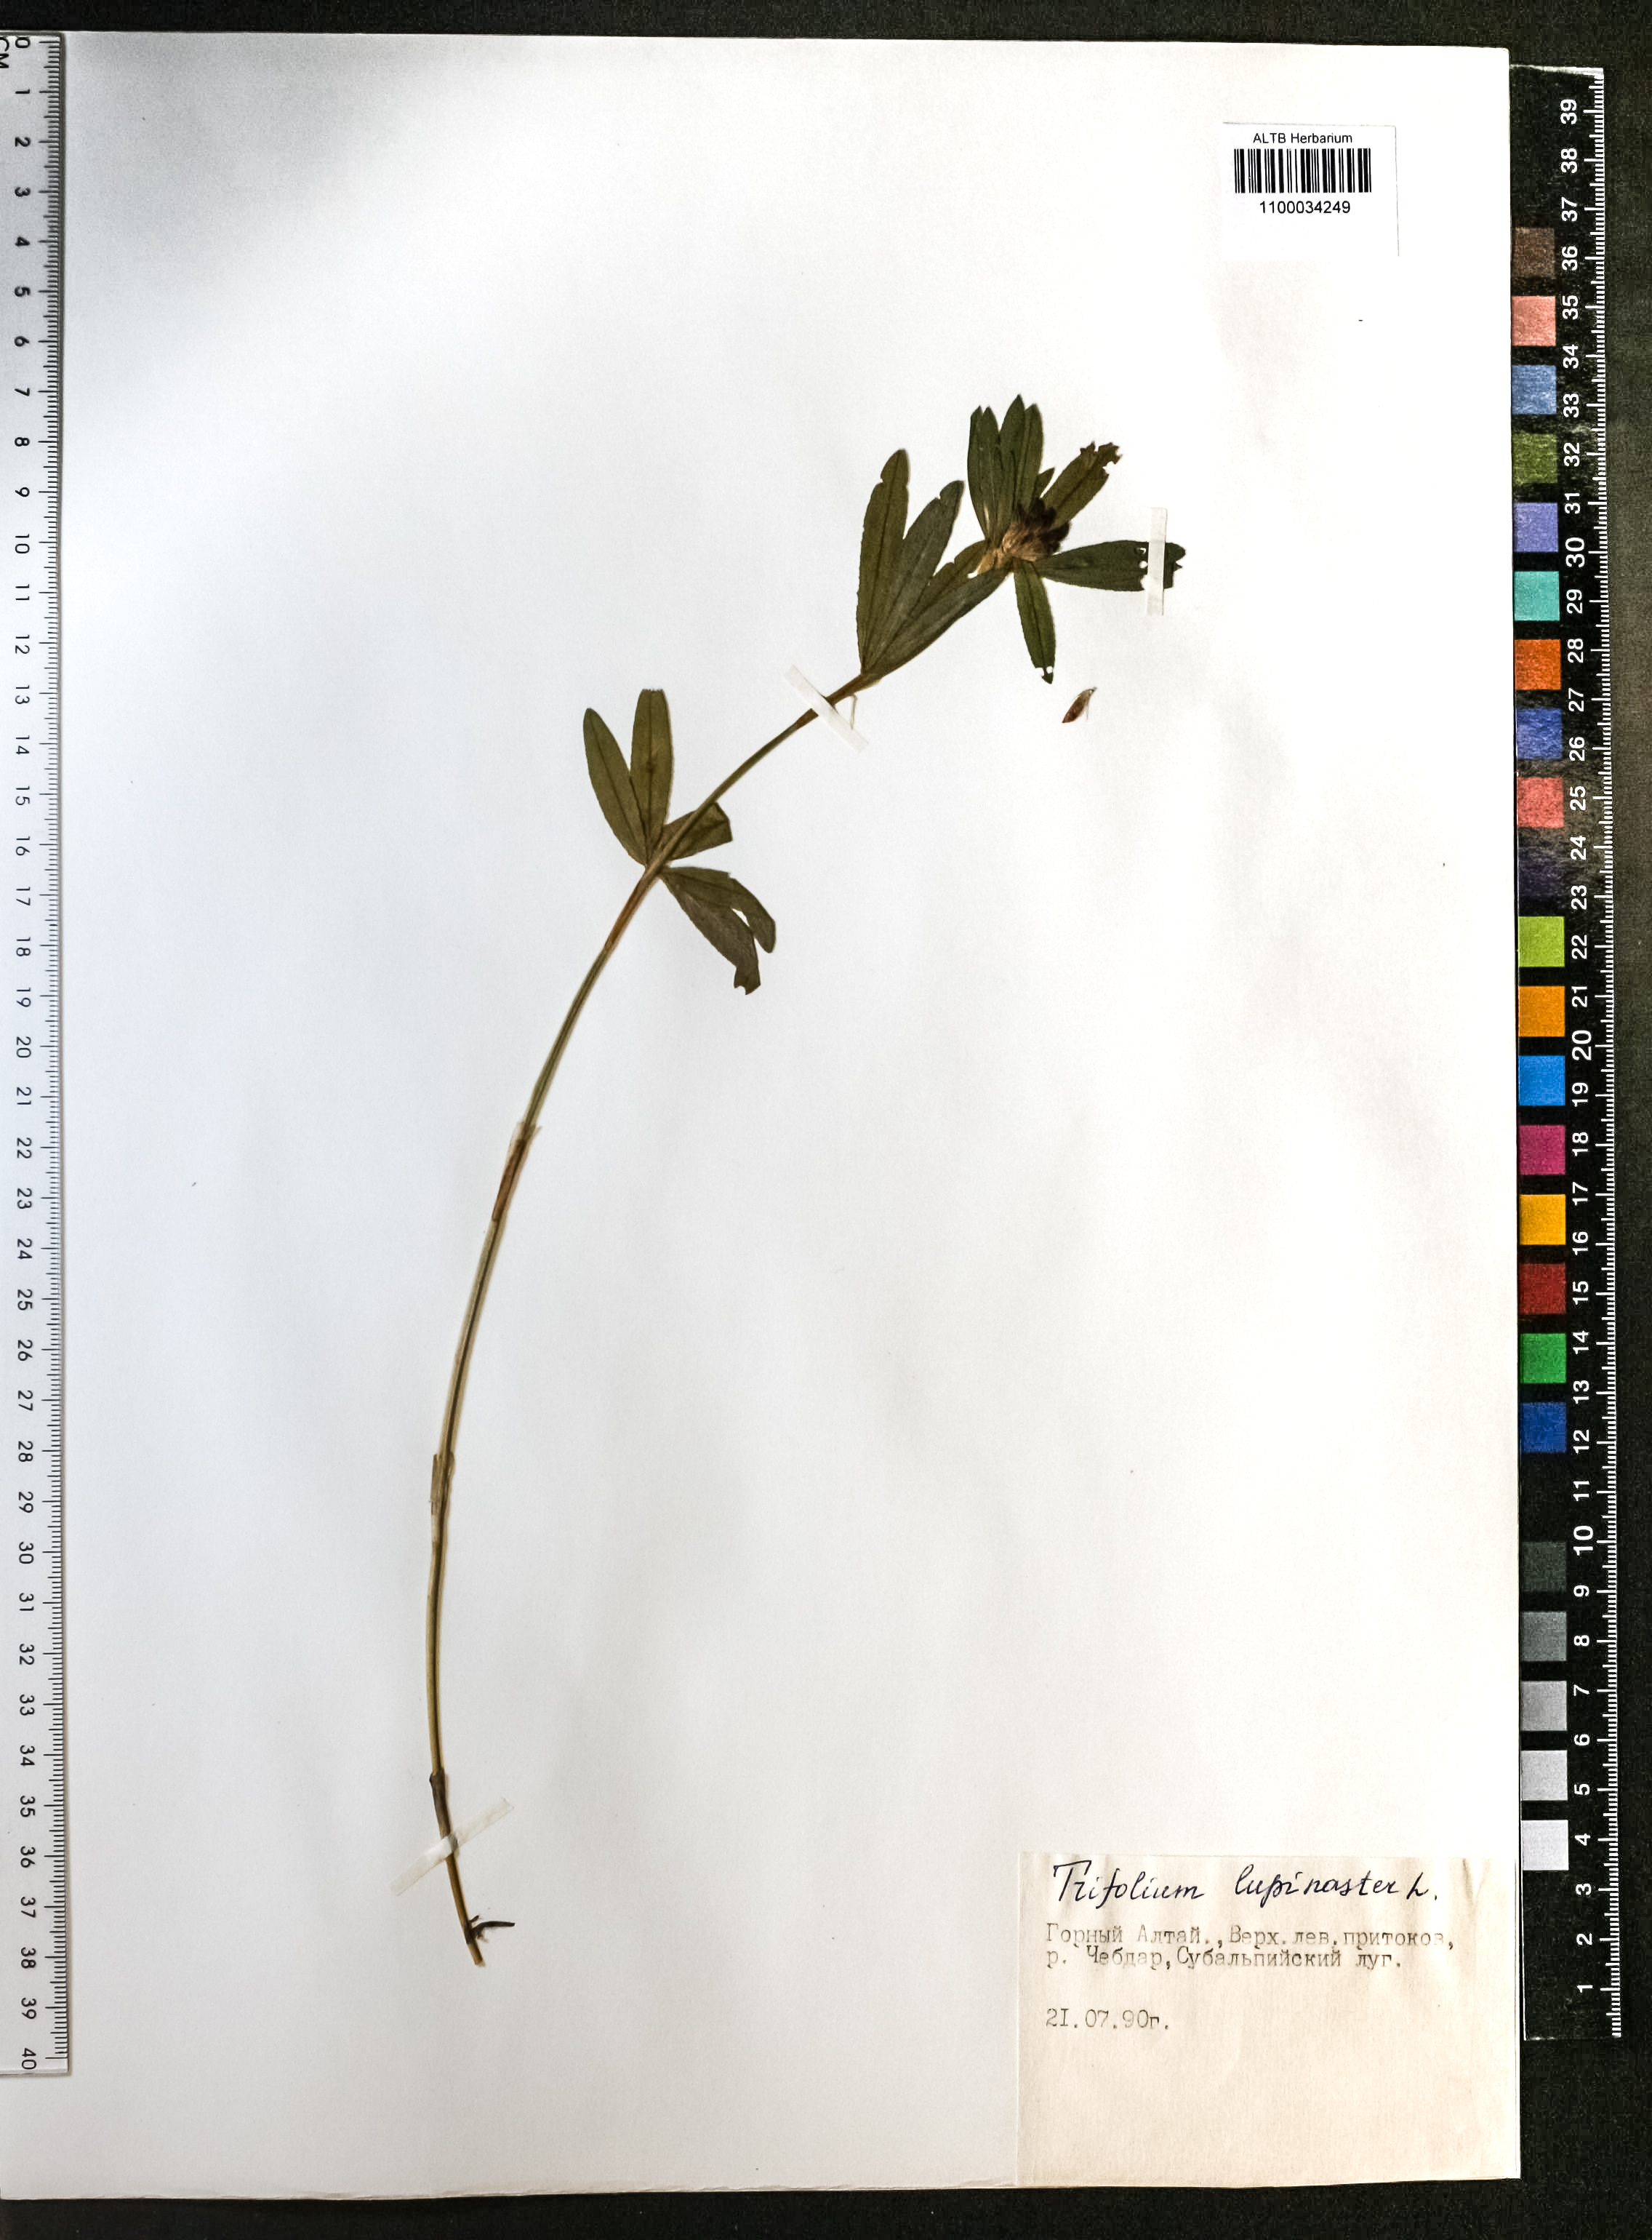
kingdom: Plantae
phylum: Tracheophyta
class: Magnoliopsida
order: Fabales
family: Fabaceae
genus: Trifolium
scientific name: Trifolium lupinaster
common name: Lupine clover
